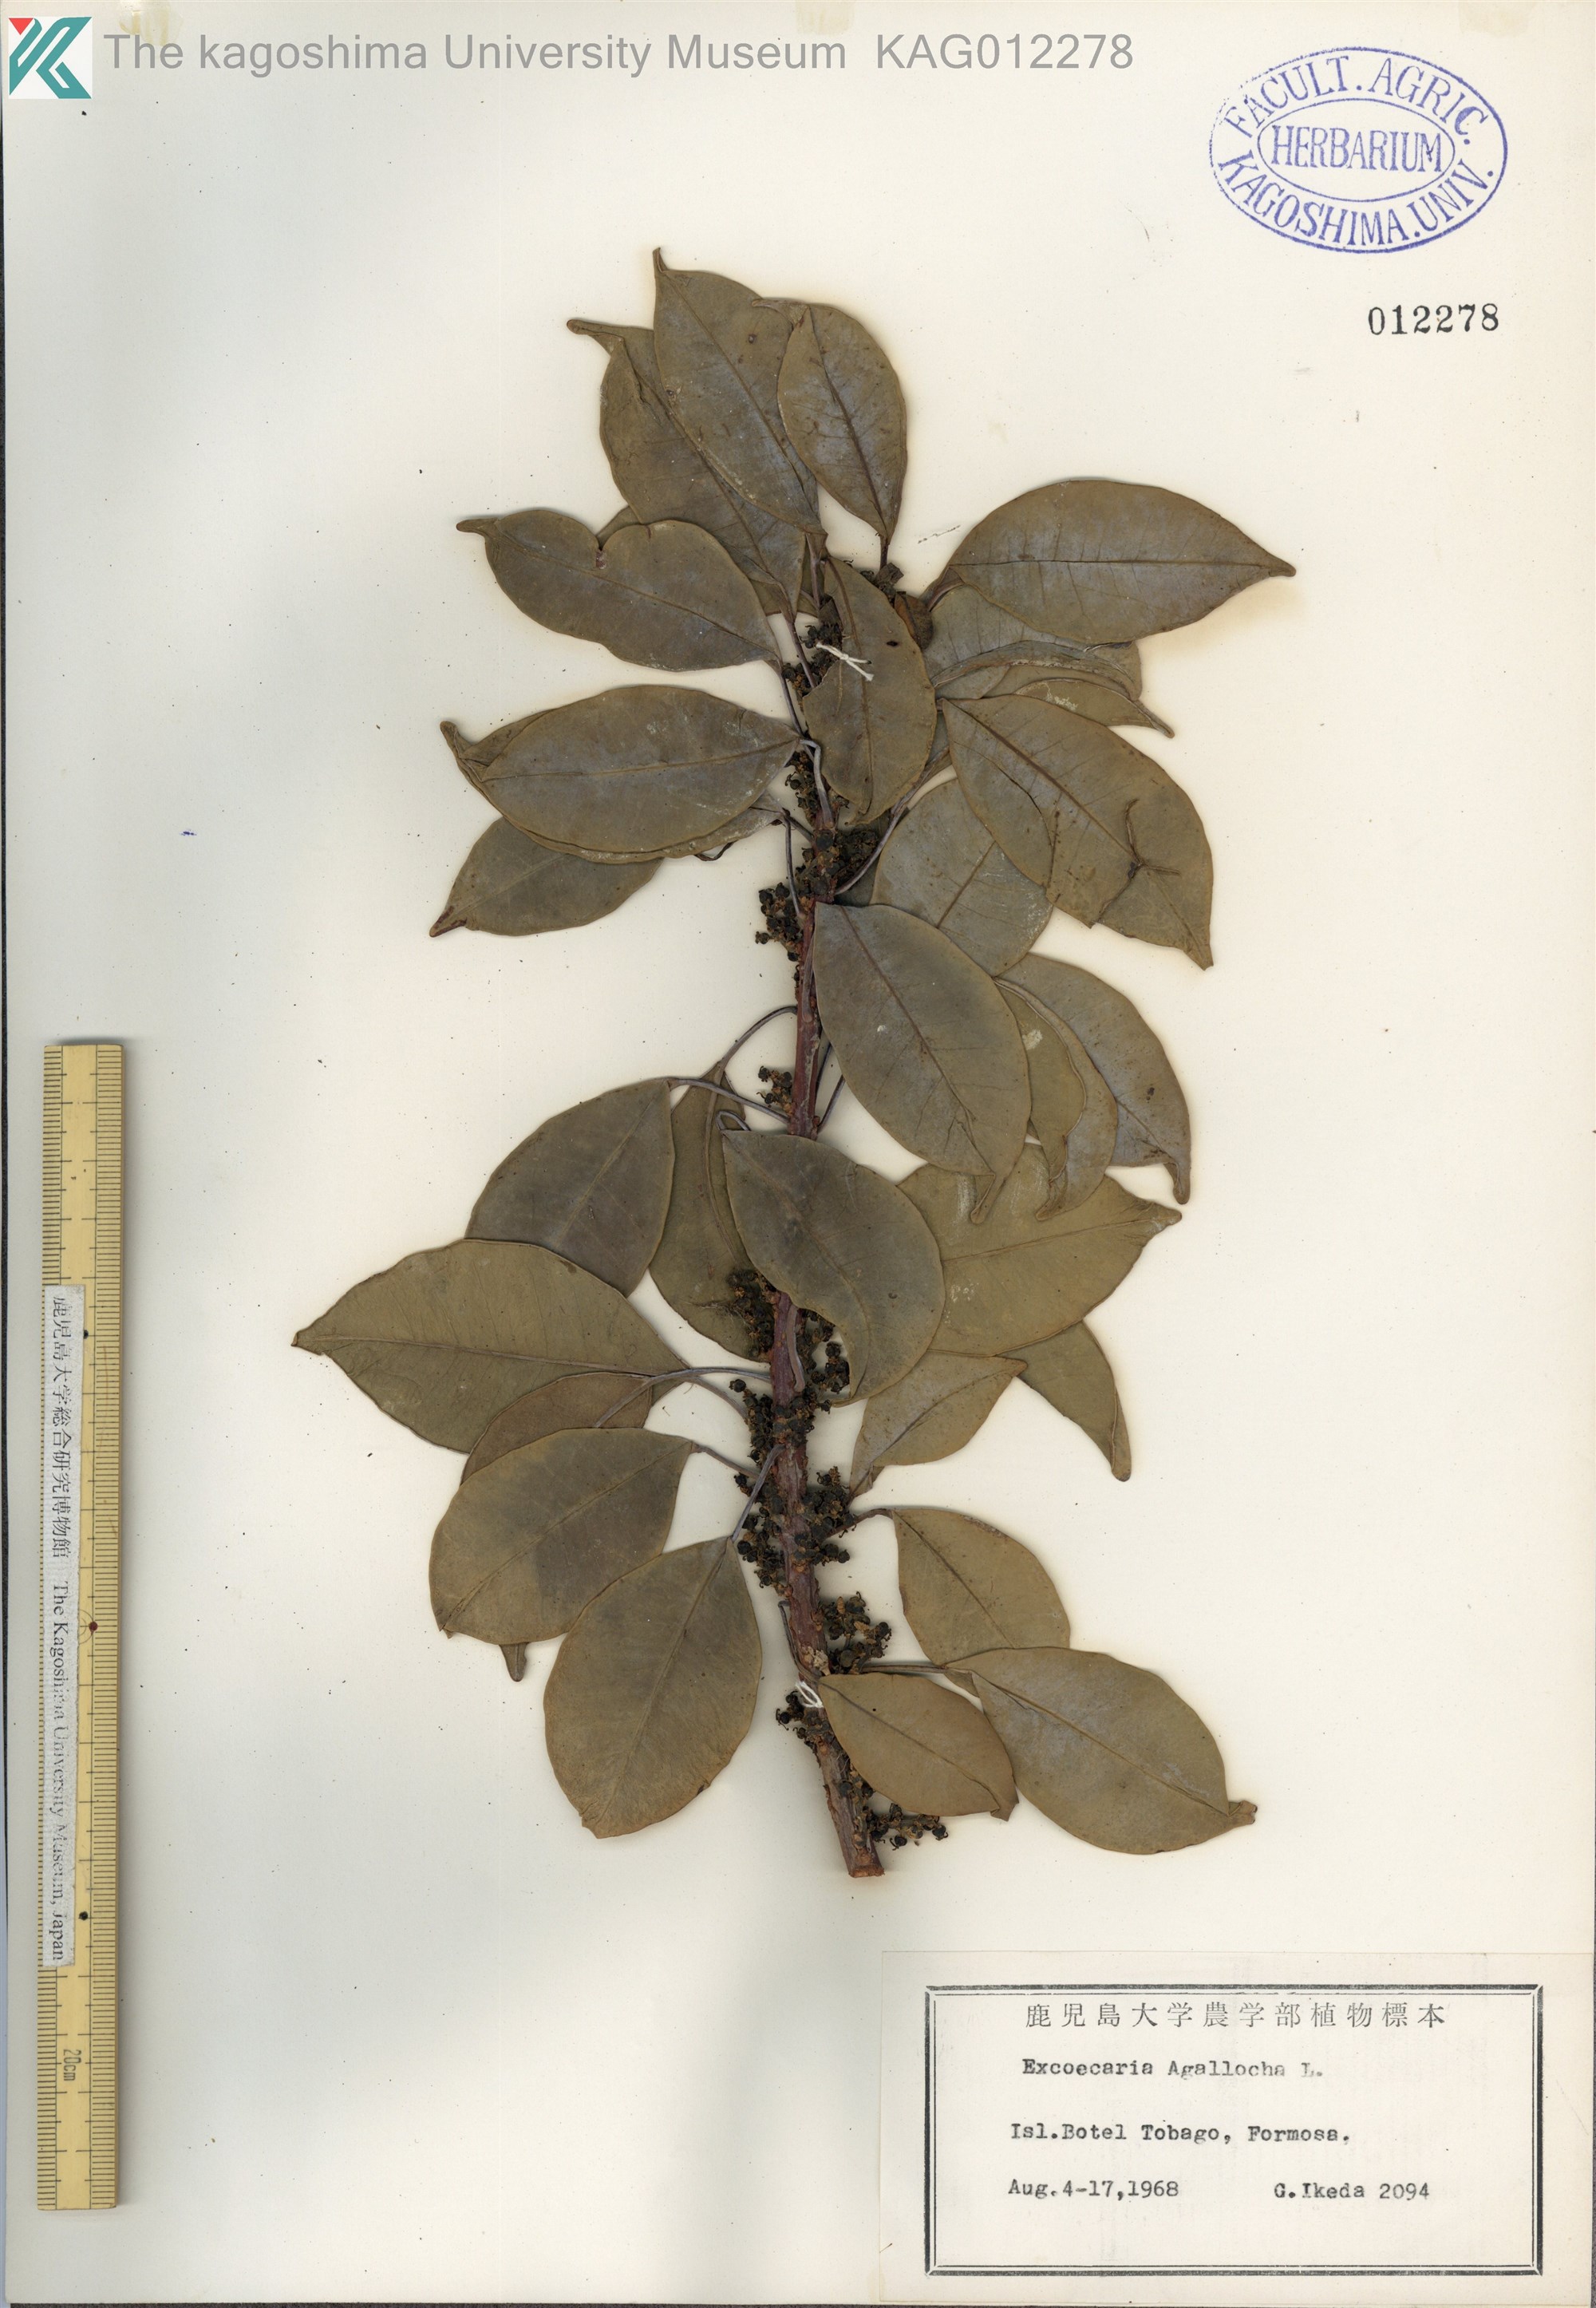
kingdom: Plantae
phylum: Tracheophyta
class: Magnoliopsida
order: Malpighiales
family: Euphorbiaceae
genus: Excoecaria
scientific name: Excoecaria agallocha
